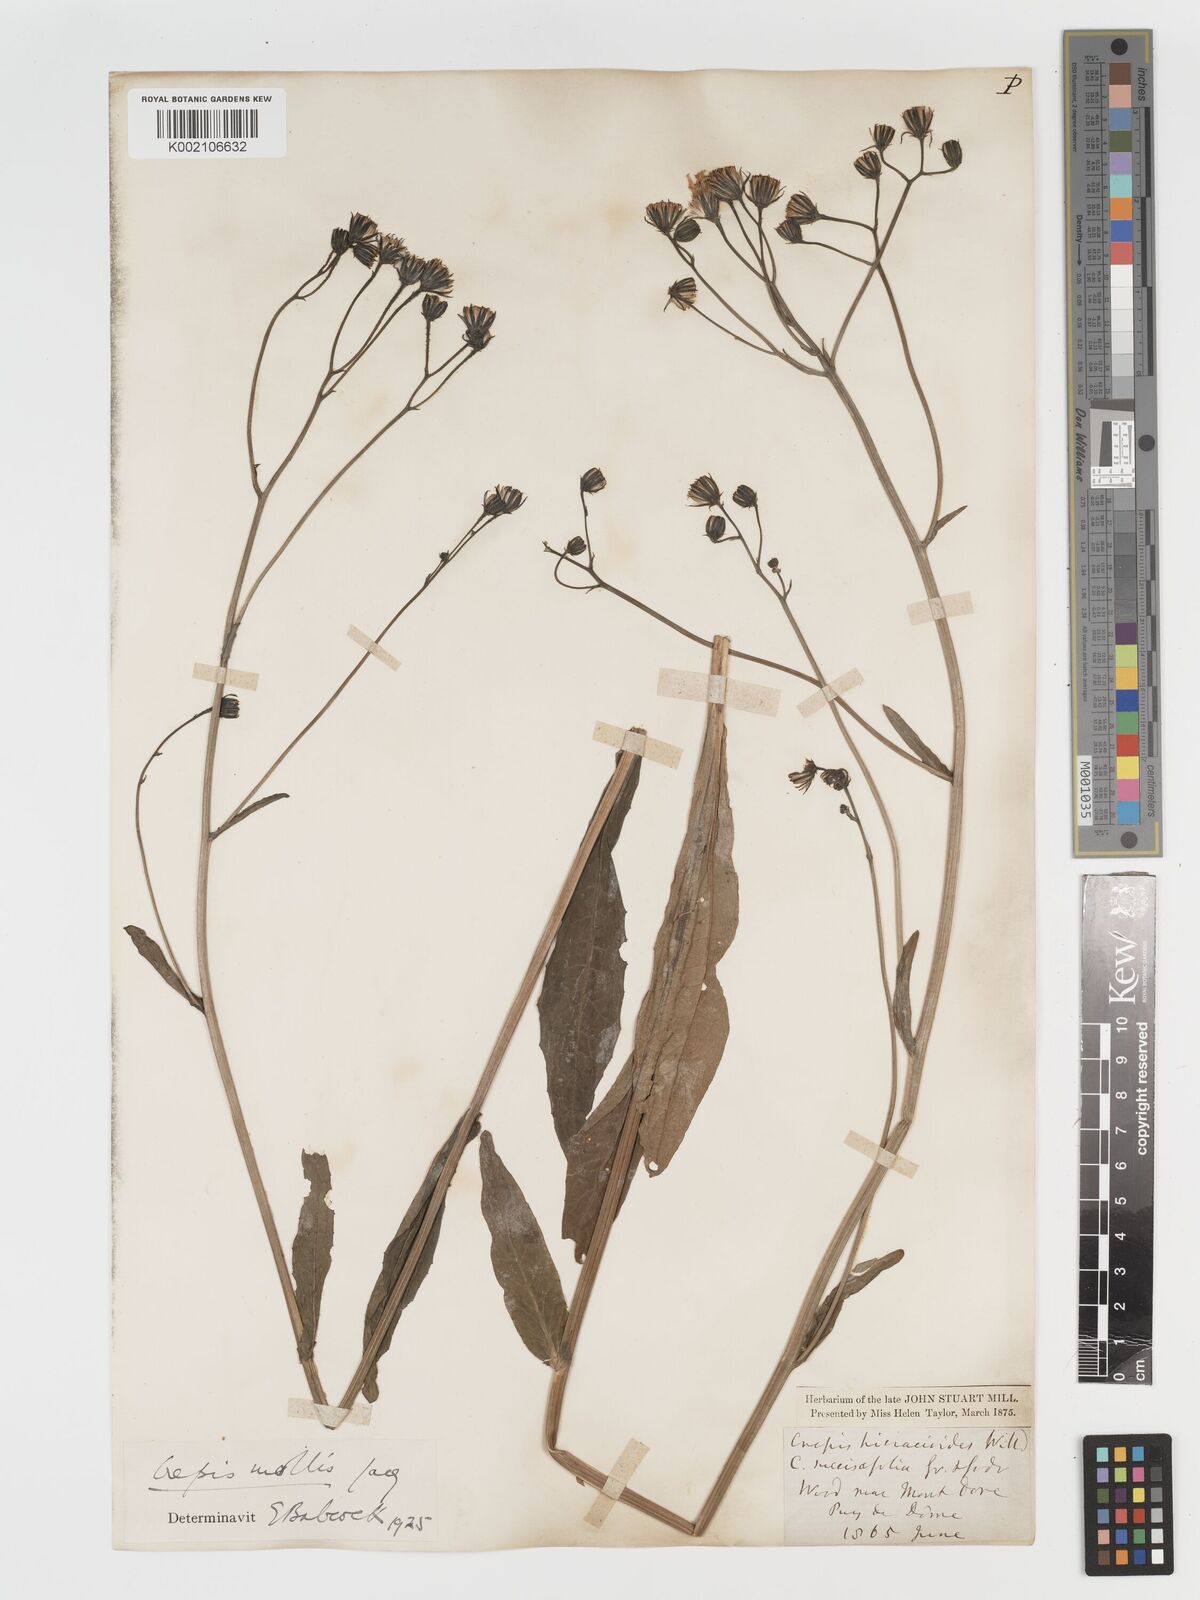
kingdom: Plantae
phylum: Tracheophyta
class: Magnoliopsida
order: Asterales
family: Asteraceae
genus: Crepis
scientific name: Crepis mollis
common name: Northern hawk's-beard
